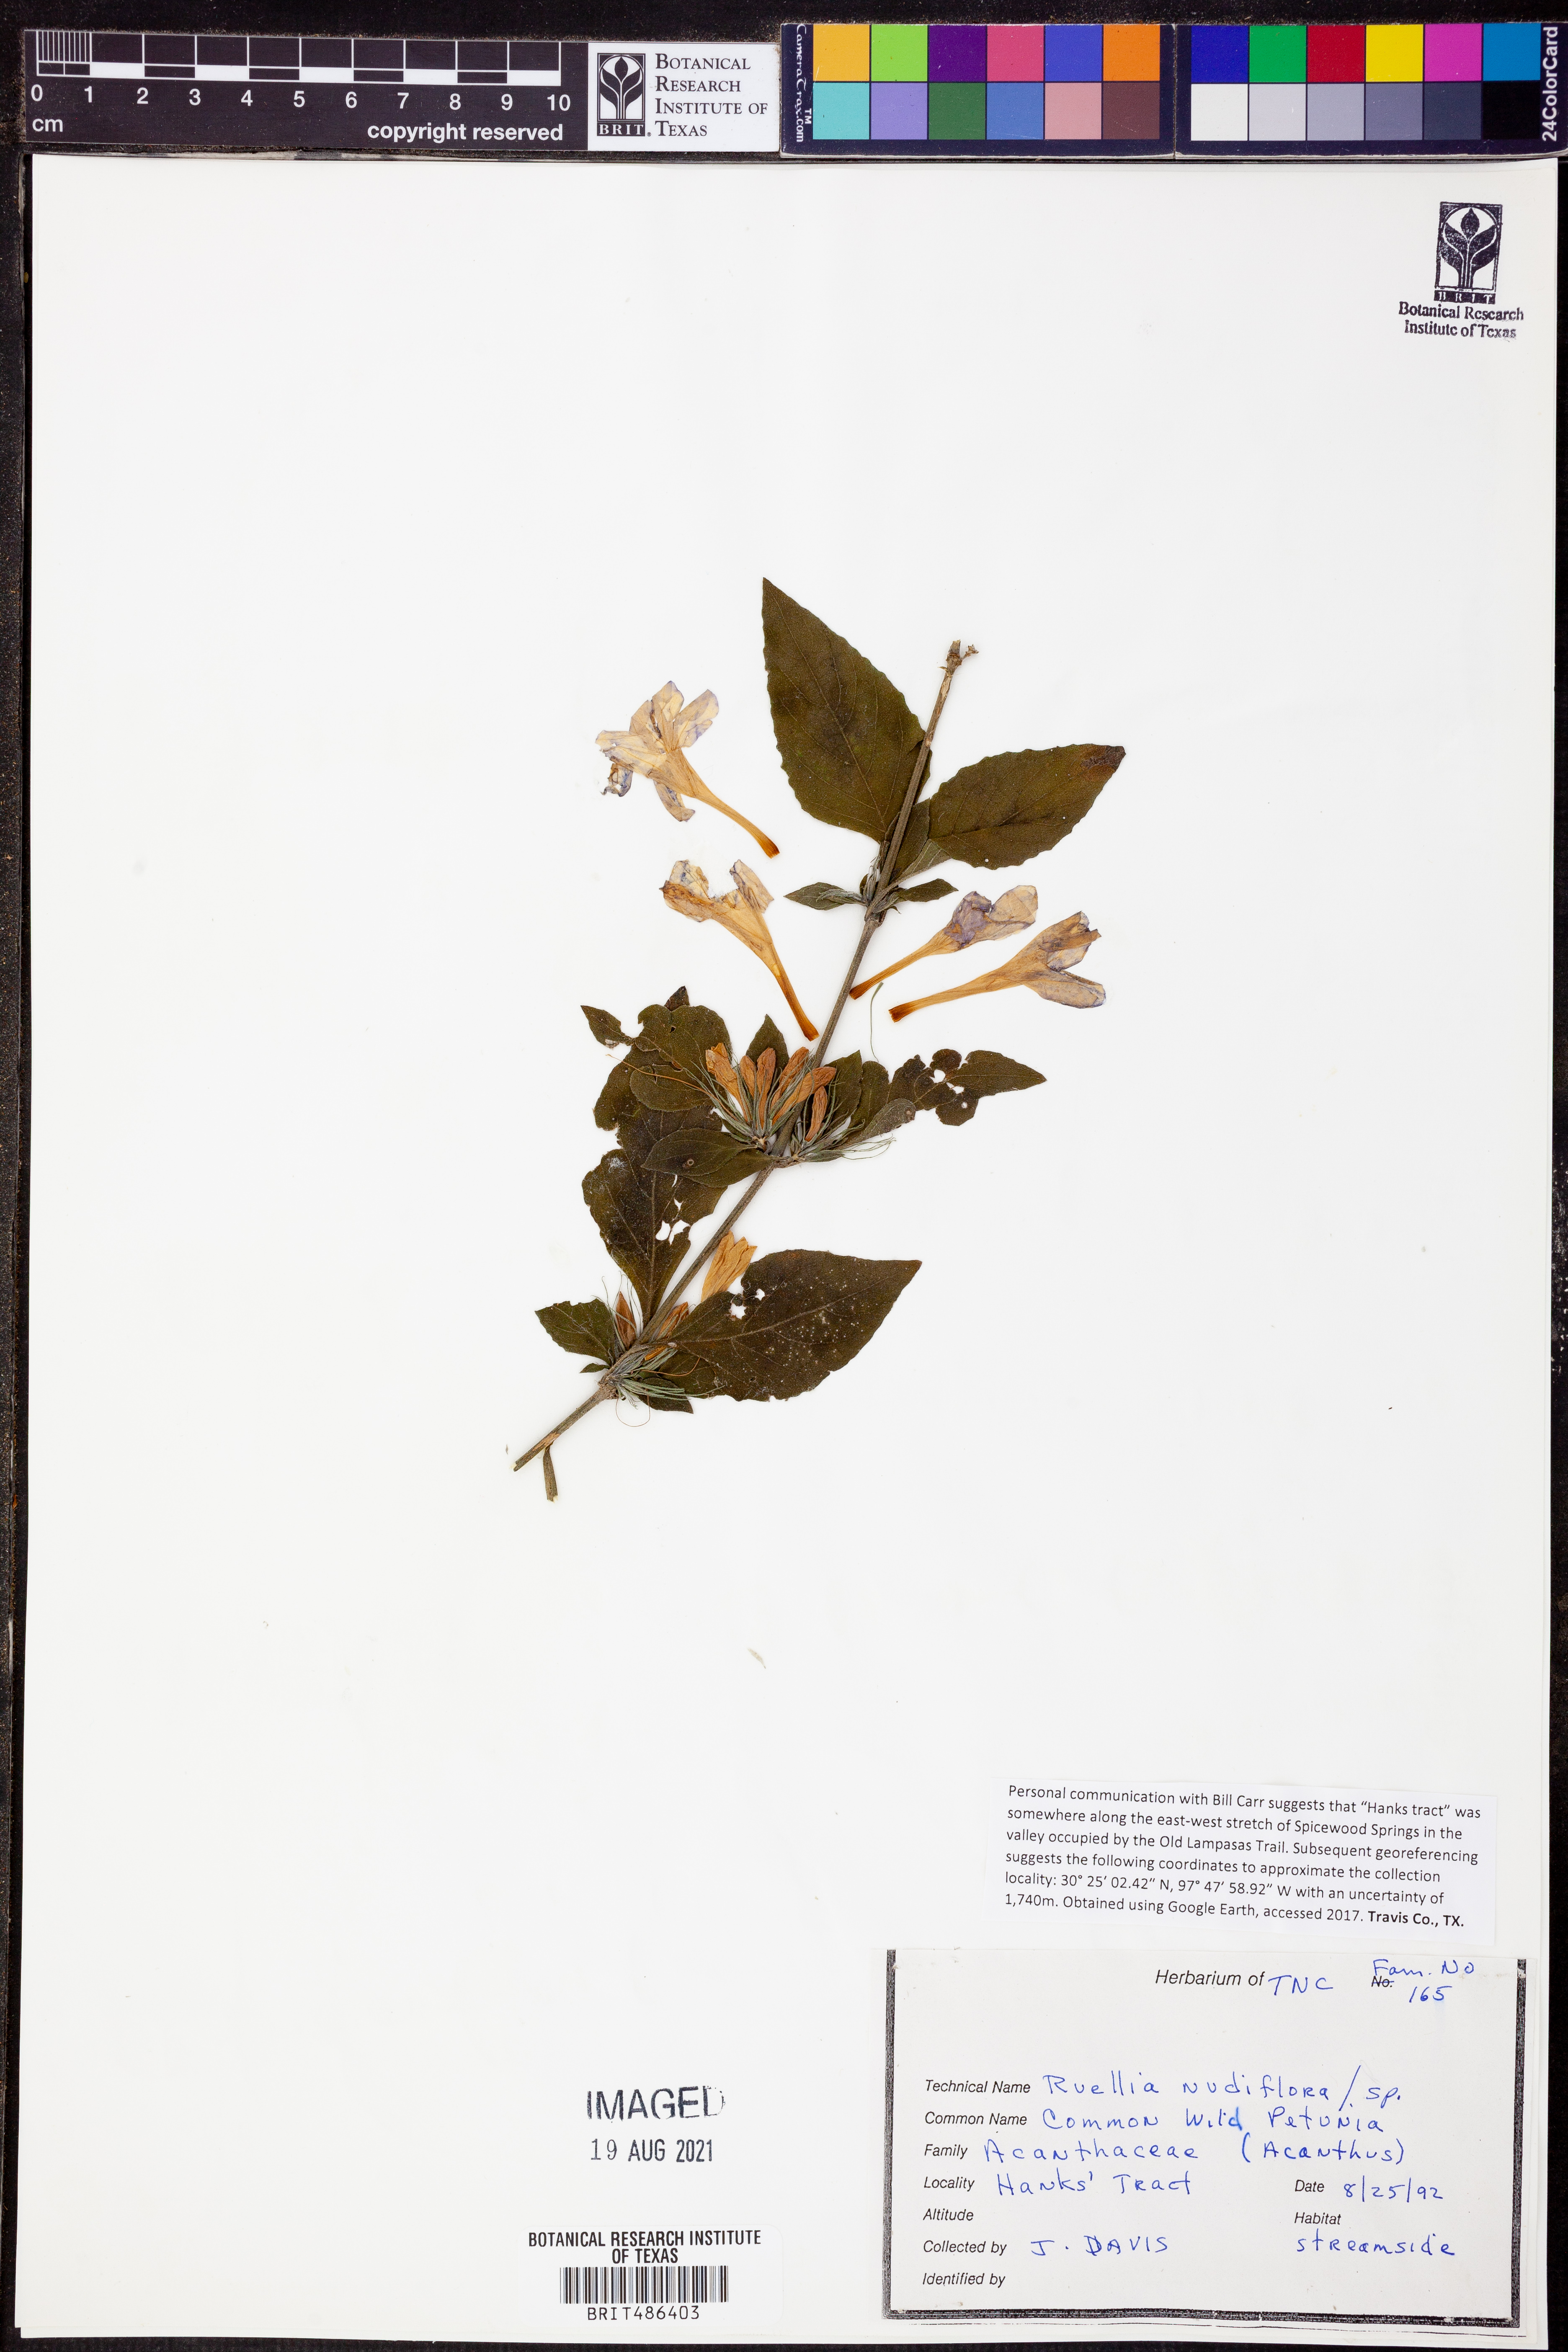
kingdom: Plantae
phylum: Tracheophyta
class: Magnoliopsida
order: Lamiales
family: Acanthaceae
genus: Ruellia
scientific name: Ruellia ciliatiflora
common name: Hairyflower wild petunia
